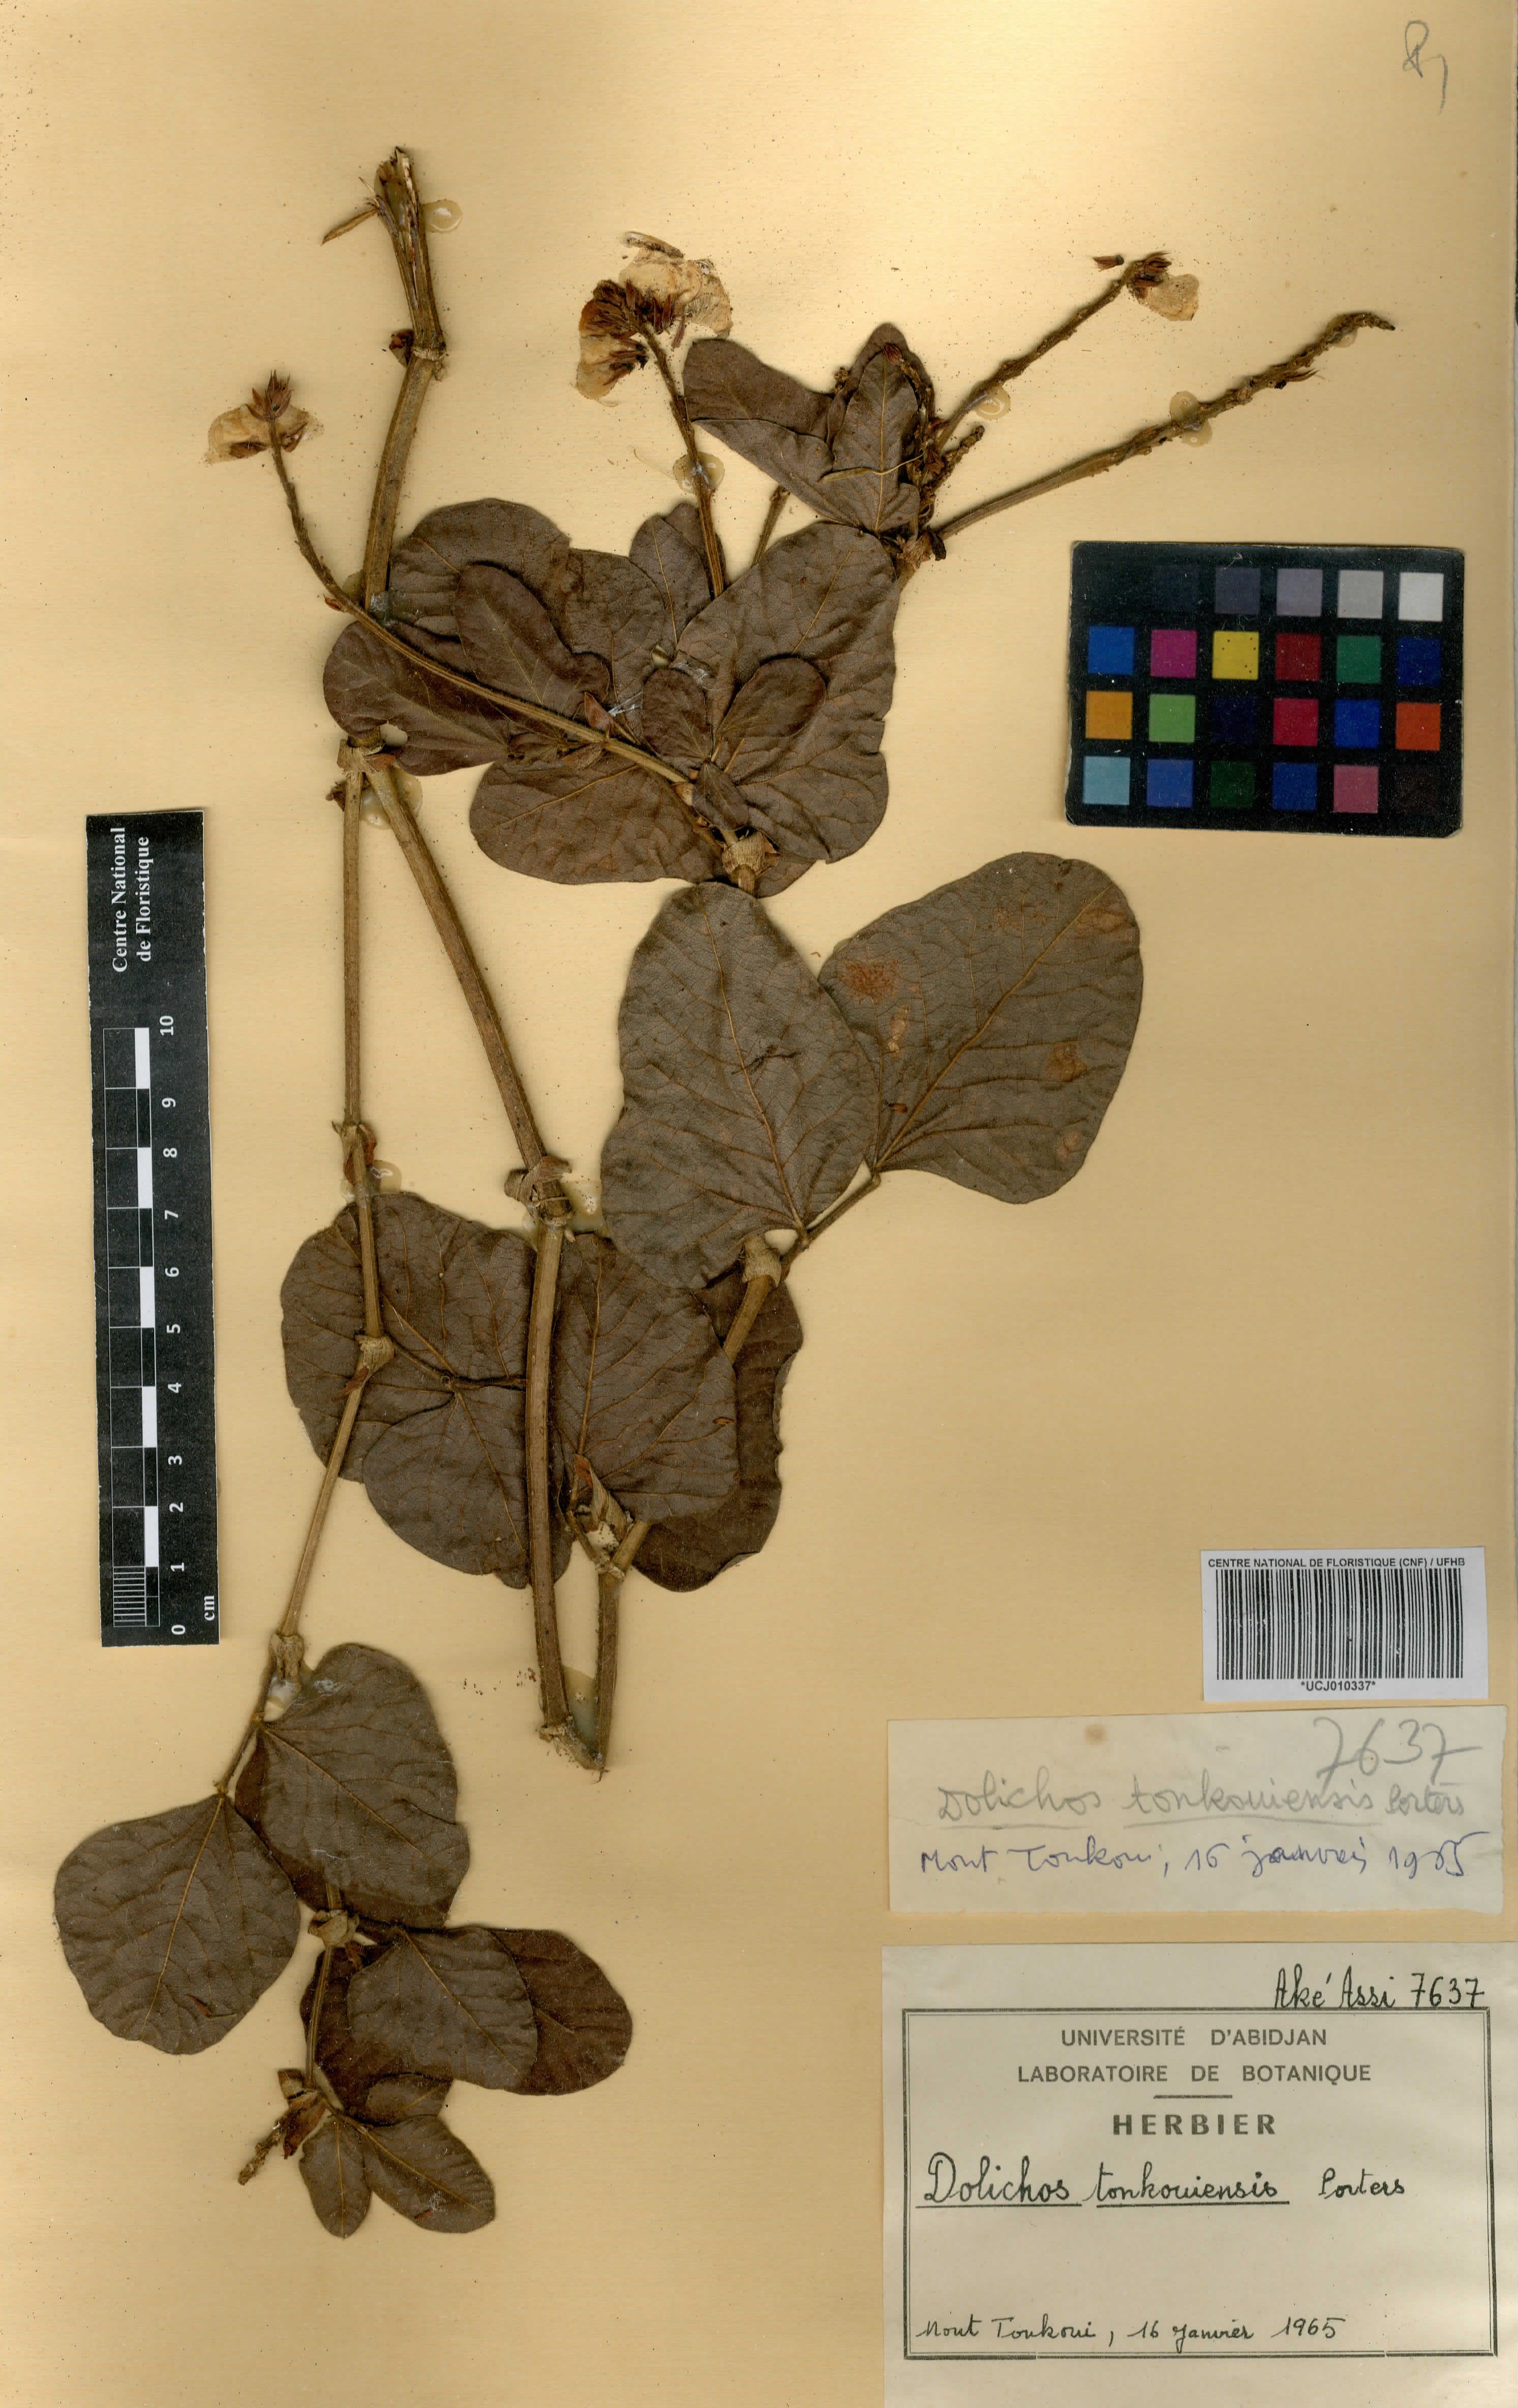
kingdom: Plantae
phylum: Tracheophyta
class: Magnoliopsida
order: Fabales
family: Fabaceae
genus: Dolichos
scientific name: Dolichos tonkouiensis
